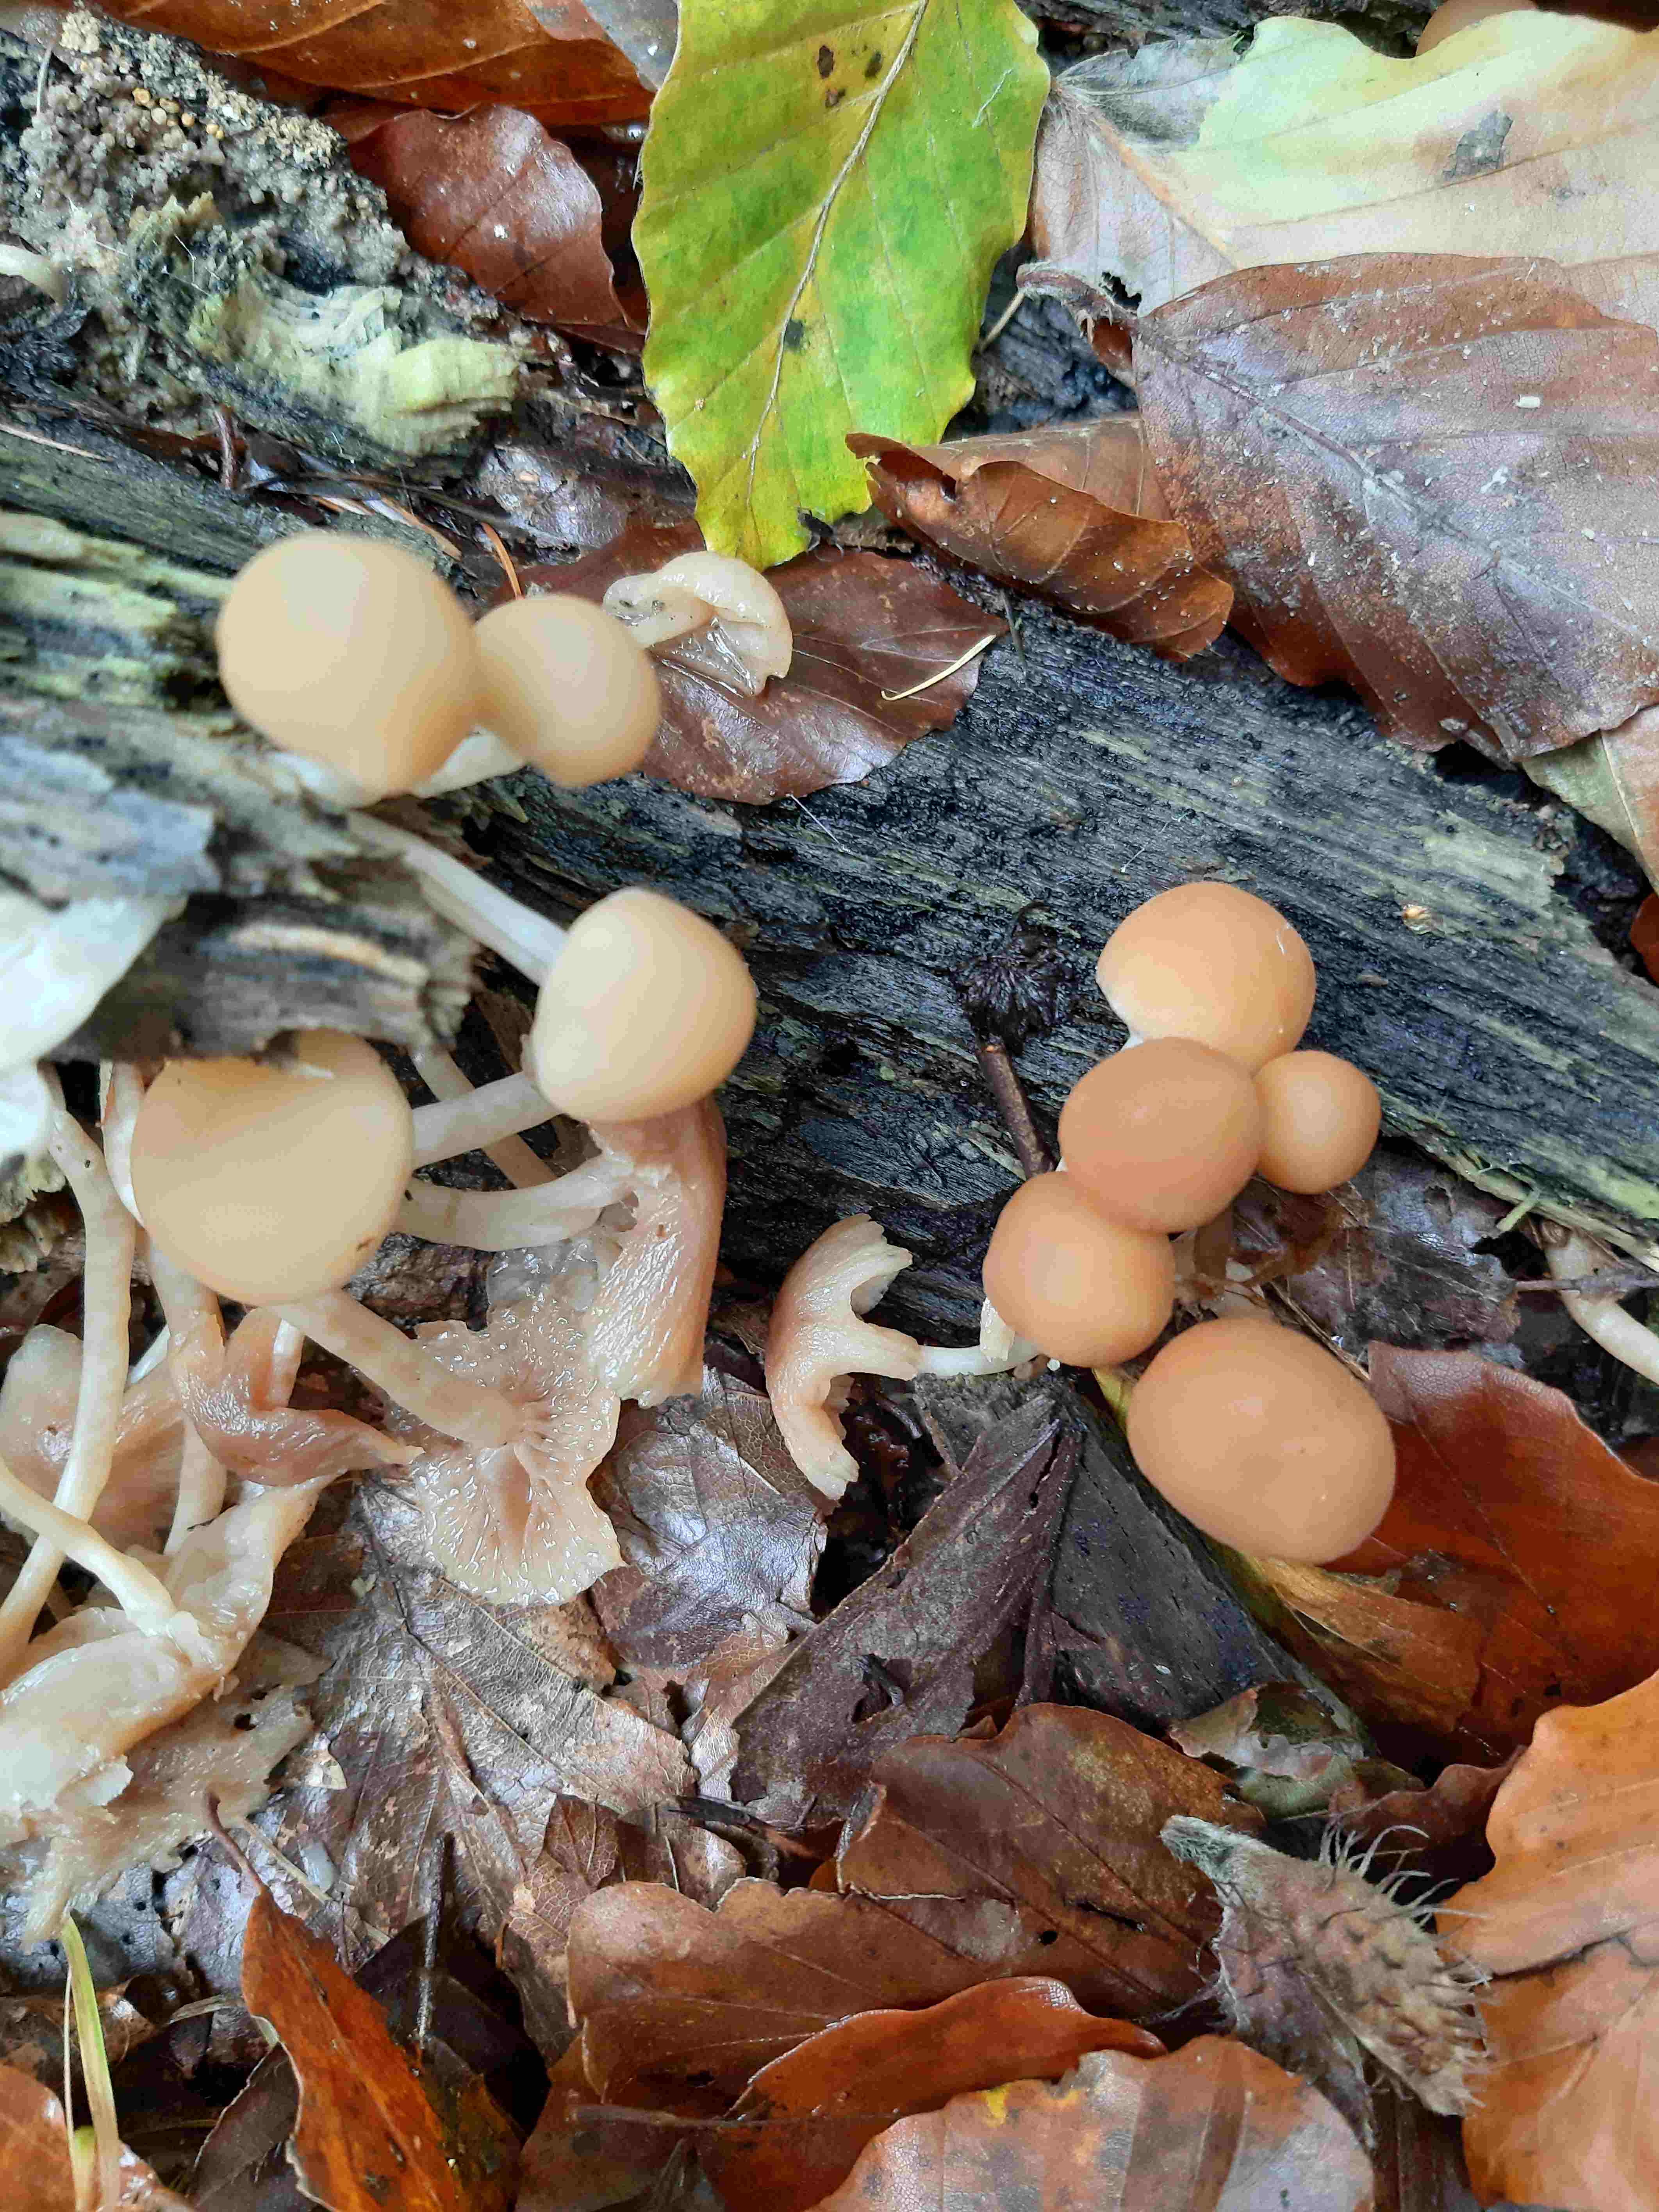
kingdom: Fungi
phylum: Basidiomycota
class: Agaricomycetes
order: Agaricales
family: Psathyrellaceae
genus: Psathyrella
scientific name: Psathyrella
